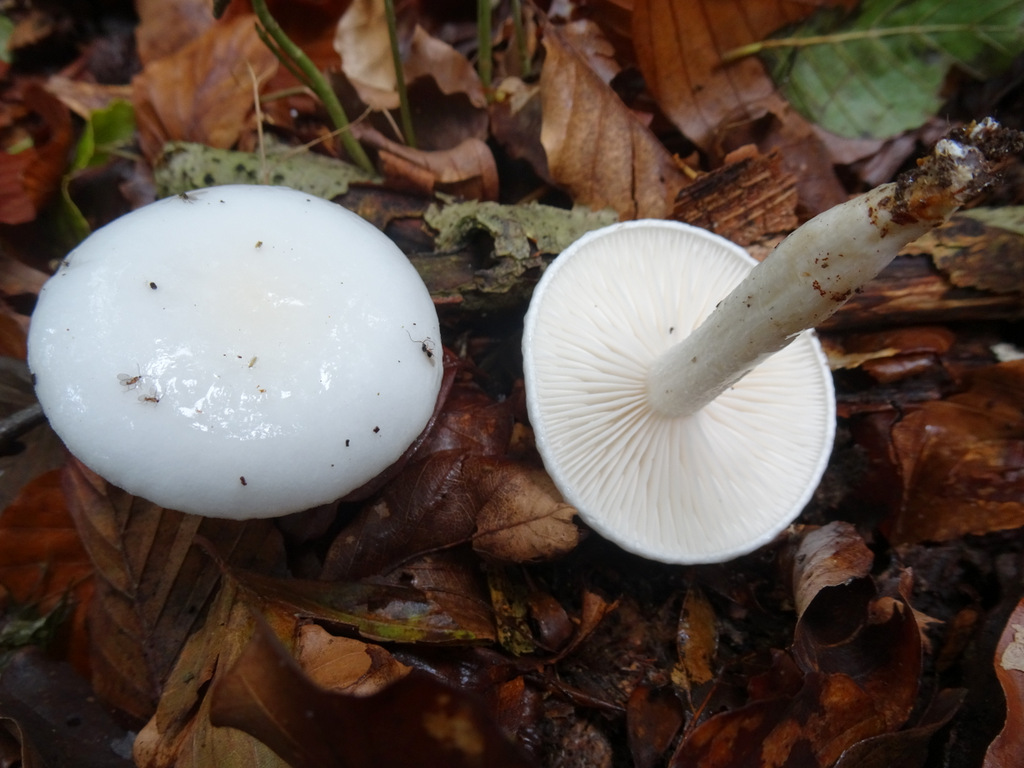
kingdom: Fungi
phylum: Basidiomycota
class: Agaricomycetes
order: Agaricales
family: Hygrophoraceae
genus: Hygrophorus
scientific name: Hygrophorus eburneus
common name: elfenbens-sneglehat
